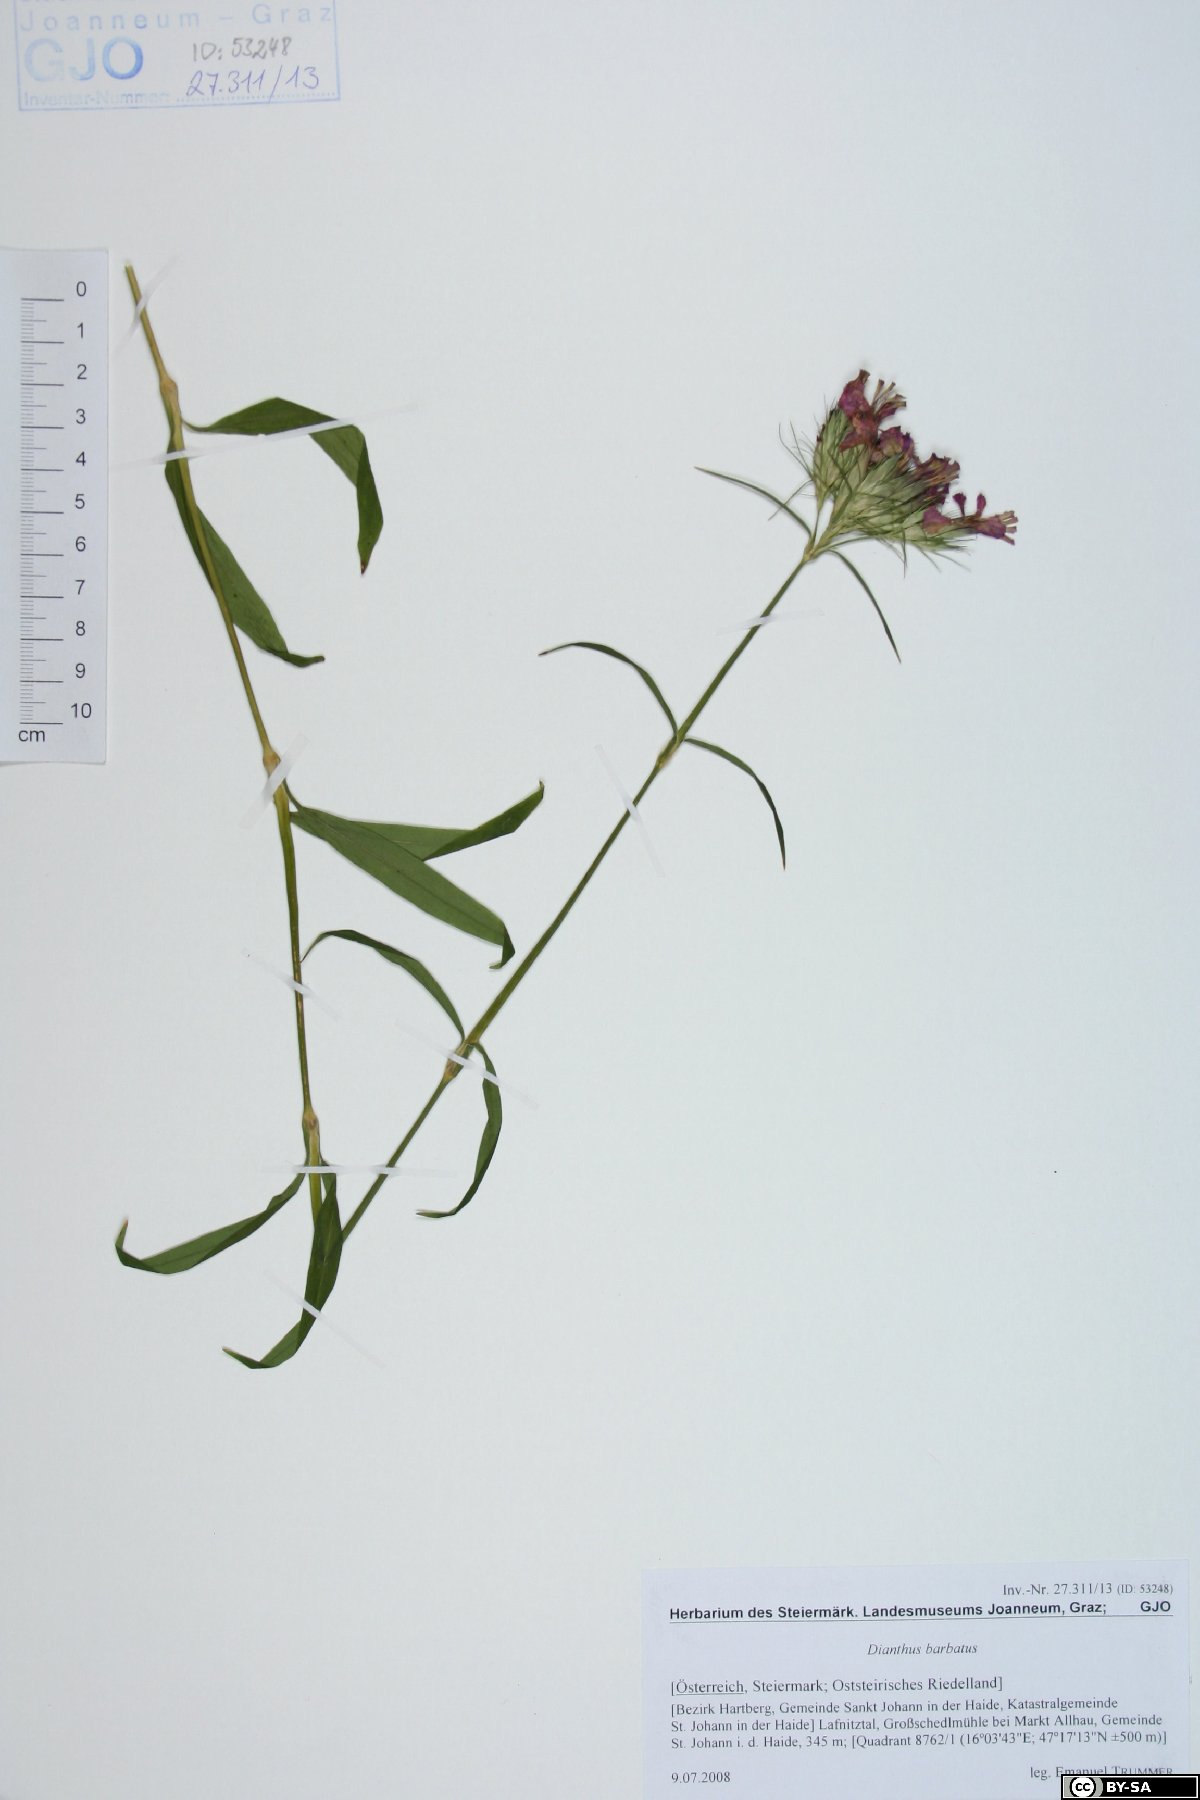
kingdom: Plantae
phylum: Tracheophyta
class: Magnoliopsida
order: Caryophyllales
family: Caryophyllaceae
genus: Dianthus
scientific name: Dianthus barbatus
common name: Sweet-william
